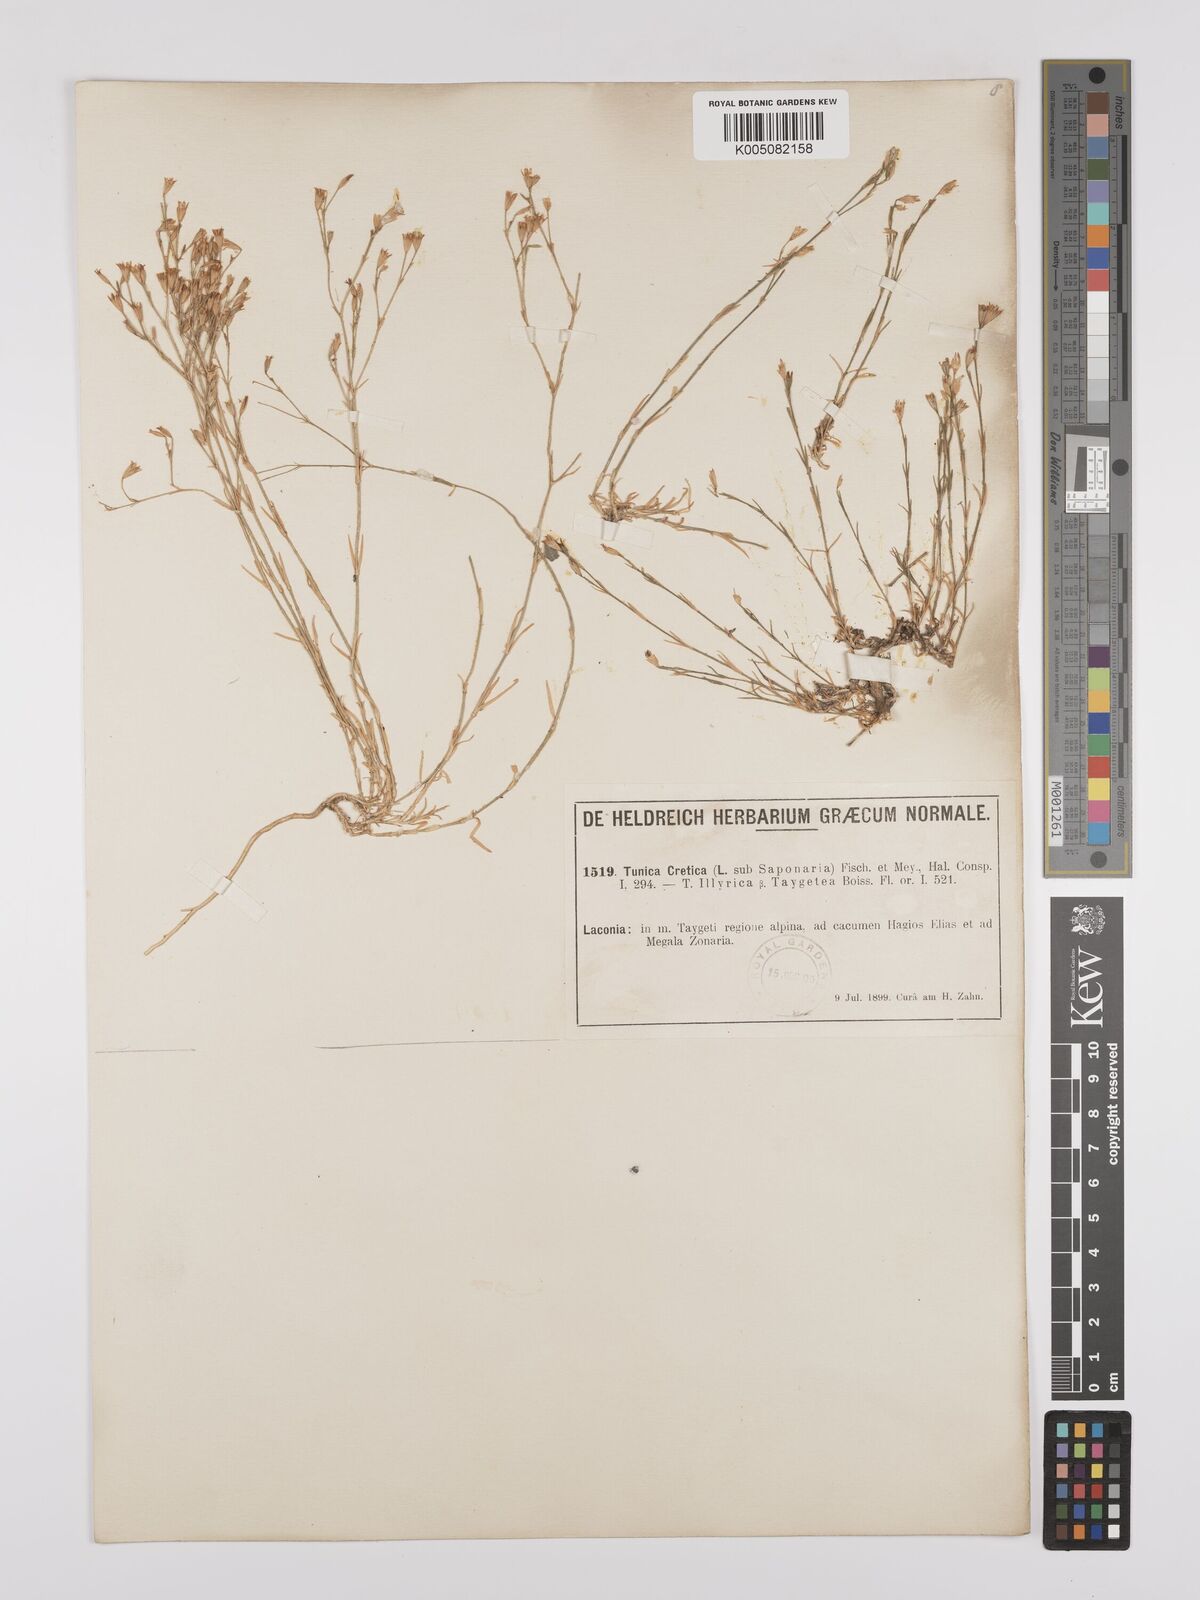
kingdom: Plantae
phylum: Tracheophyta
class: Magnoliopsida
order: Caryophyllales
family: Caryophyllaceae
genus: Petrorhagia
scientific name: Petrorhagia cretica
